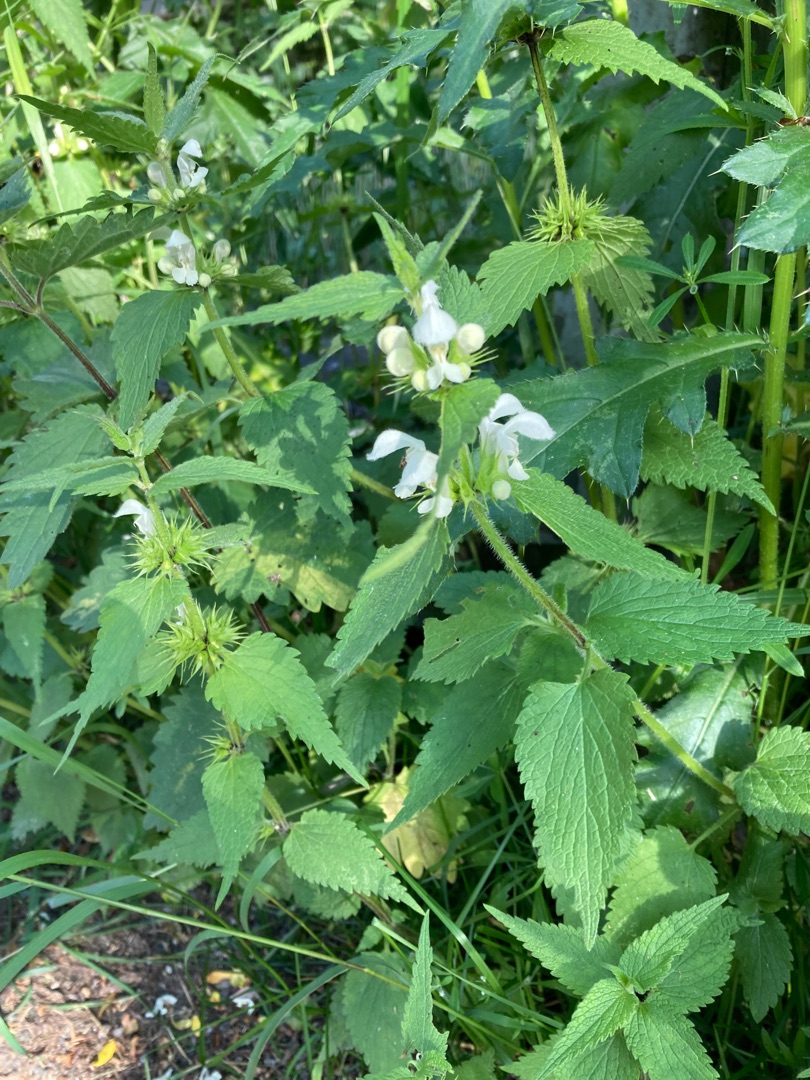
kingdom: Plantae
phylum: Tracheophyta
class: Magnoliopsida
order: Lamiales
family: Lamiaceae
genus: Lamium
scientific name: Lamium album
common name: Døvnælde
